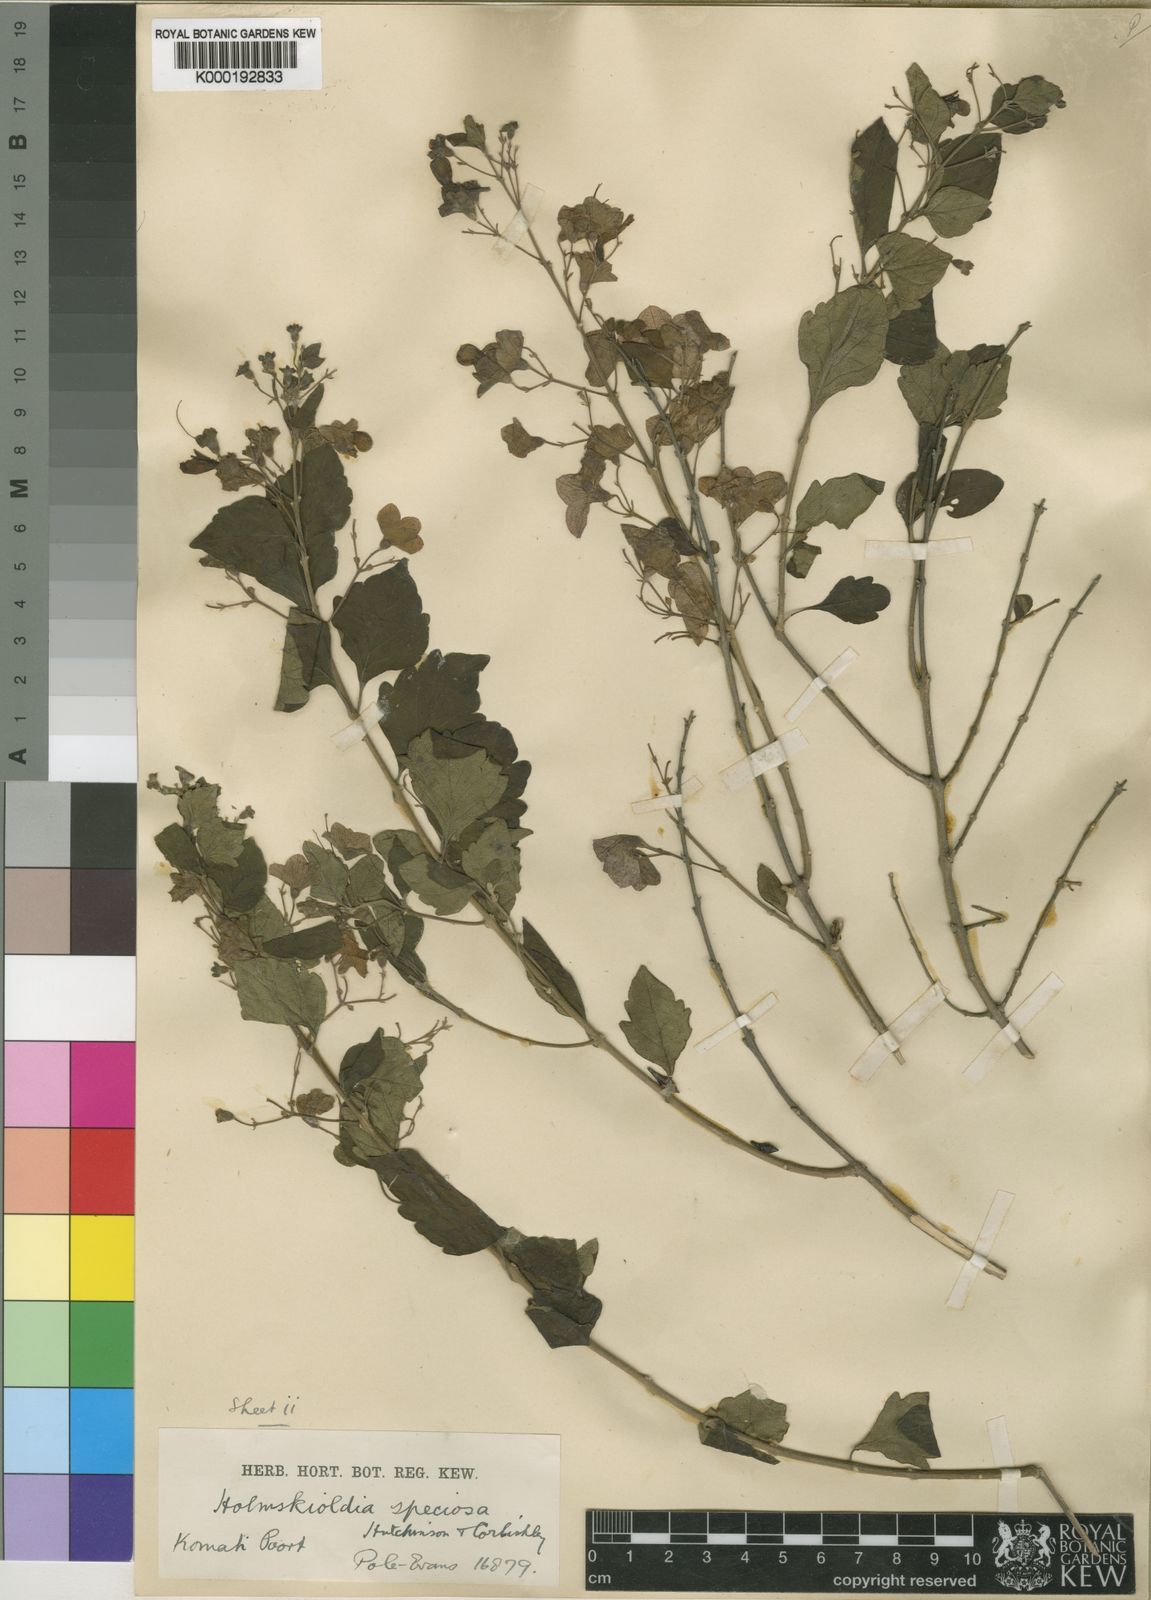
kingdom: Plantae
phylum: Tracheophyta
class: Magnoliopsida
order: Lamiales
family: Lamiaceae
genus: Karomia
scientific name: Karomia speciosa
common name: Southern chinese-hats
